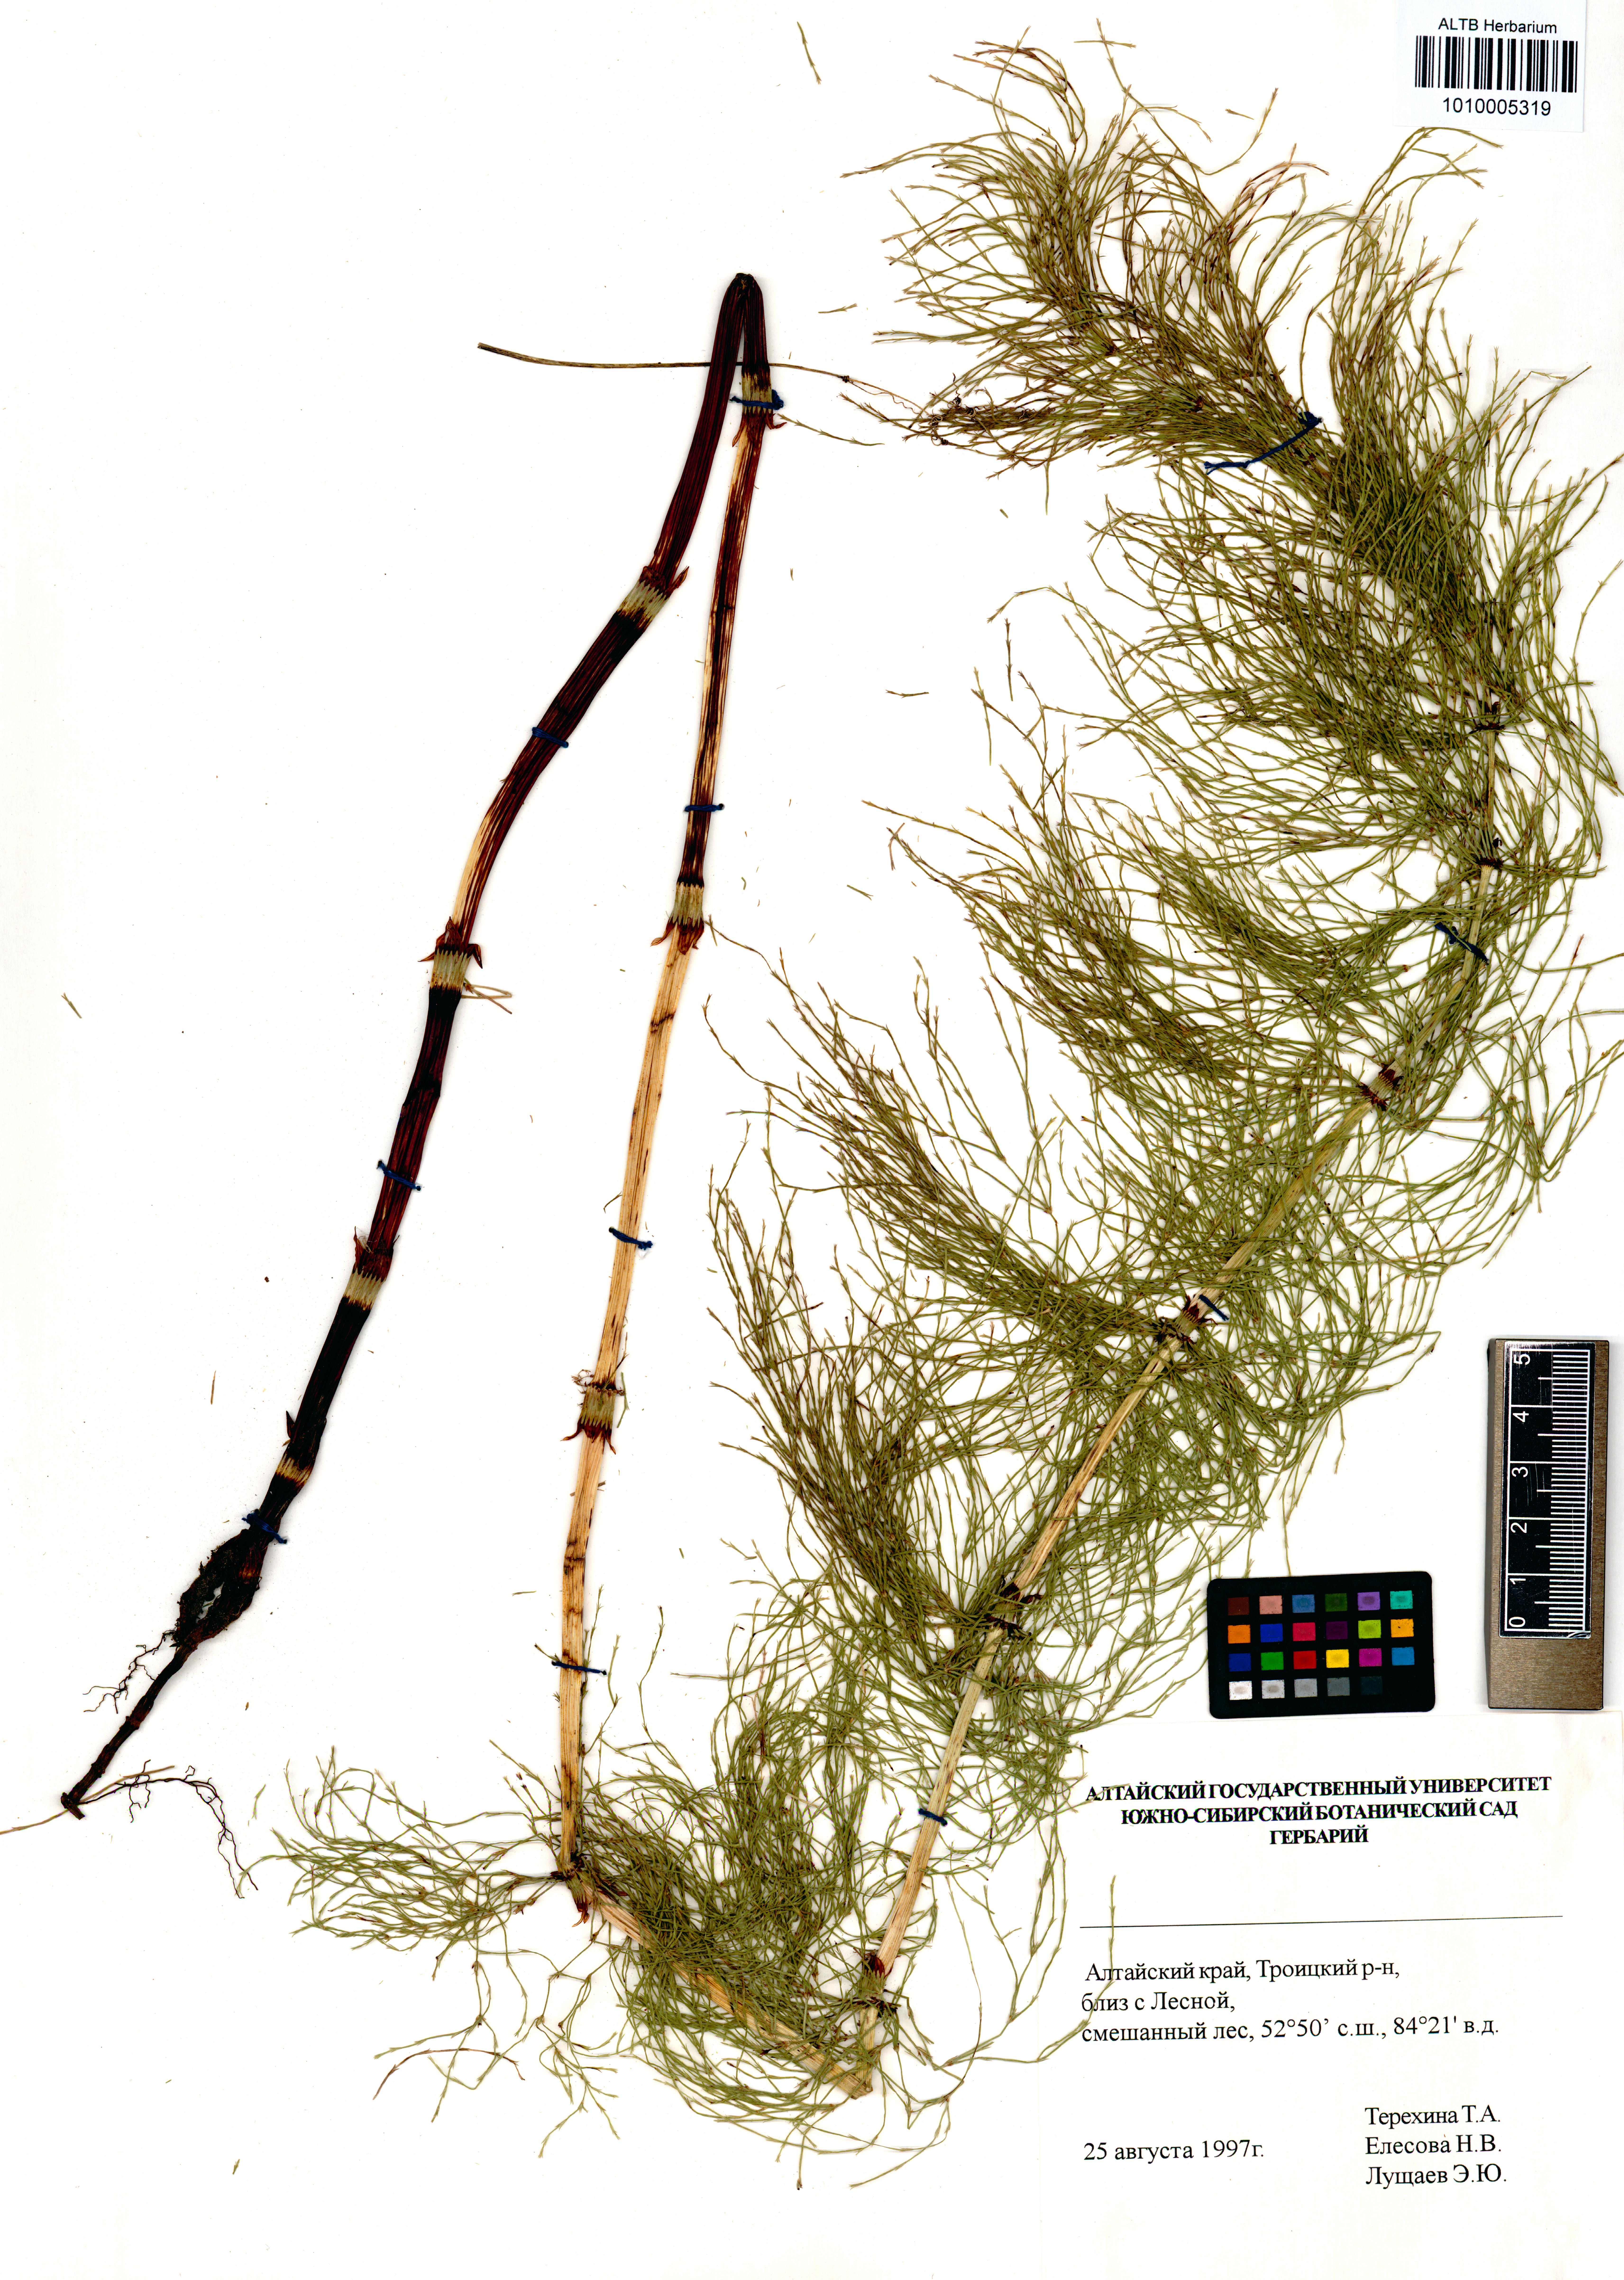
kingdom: Plantae
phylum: Tracheophyta
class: Polypodiopsida
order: Equisetales
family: Equisetaceae
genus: Equisetum
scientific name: Equisetum sylvaticum
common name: Wood horsetail
